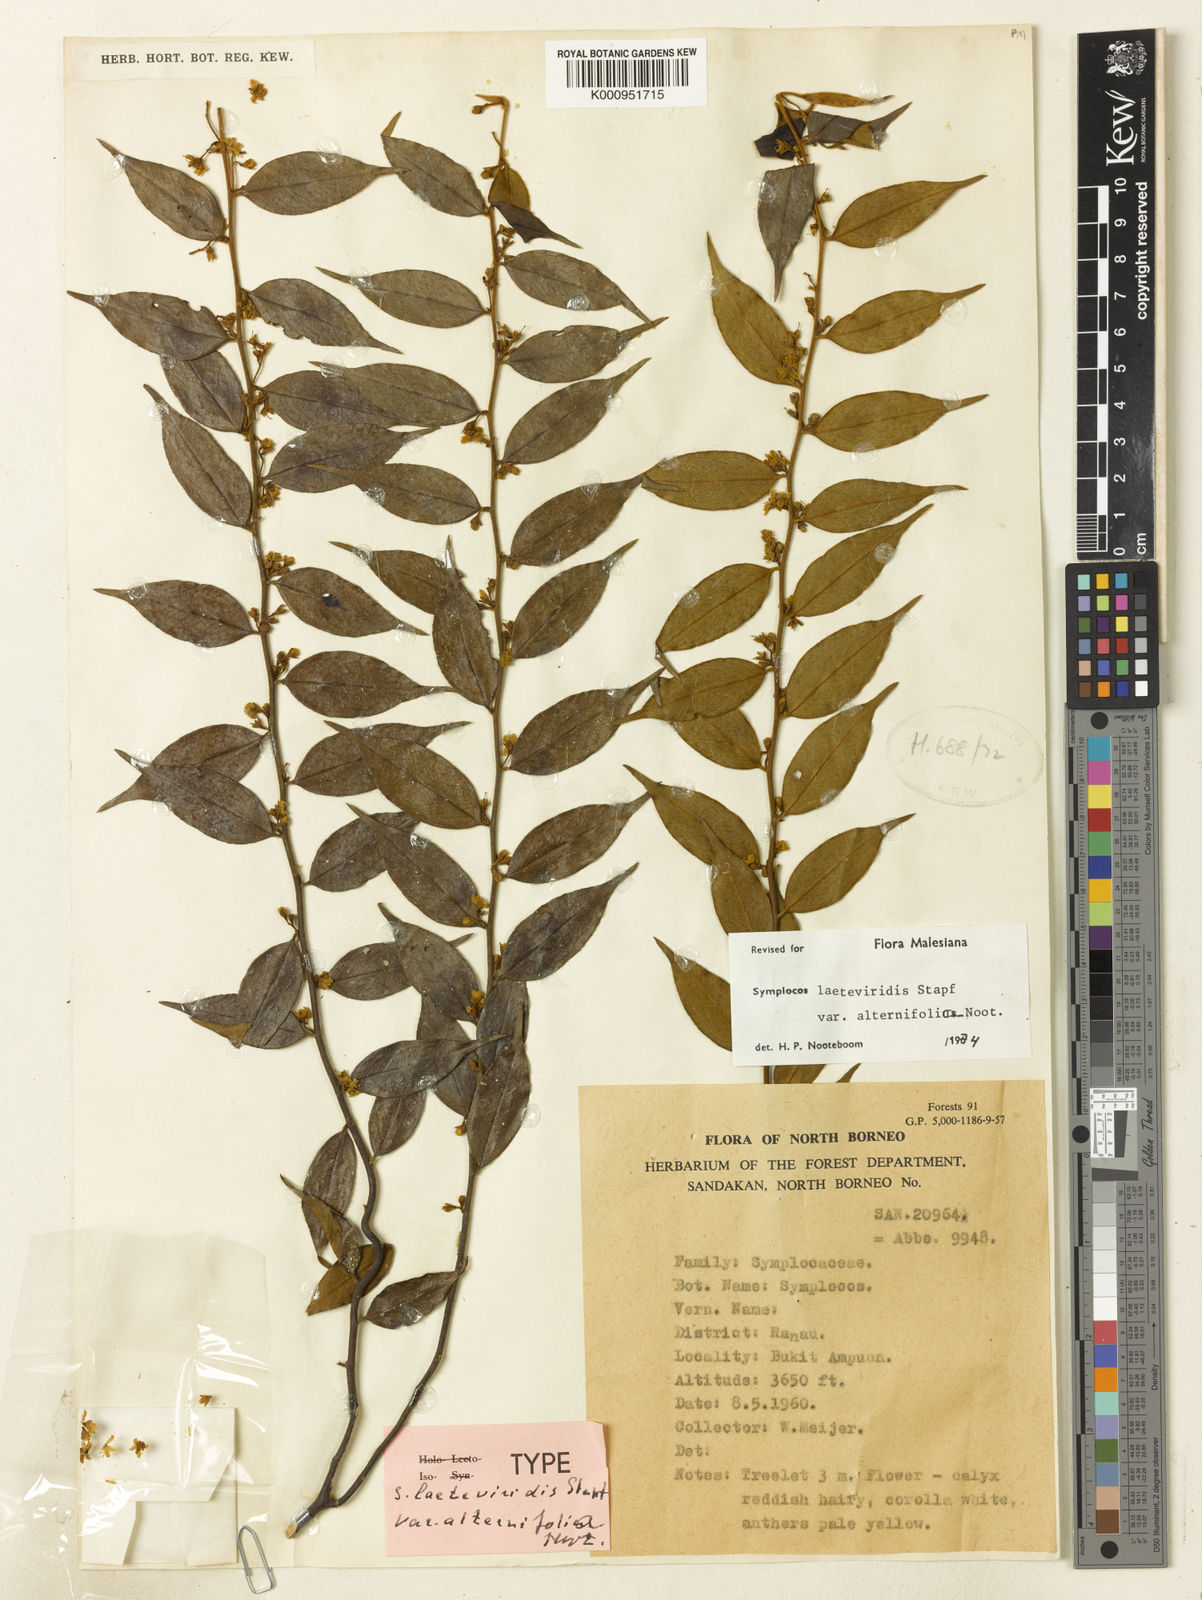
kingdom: Plantae
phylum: Tracheophyta
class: Magnoliopsida
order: Ericales
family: Symplocaceae
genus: Symplocos
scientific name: Symplocos laeteviridis
